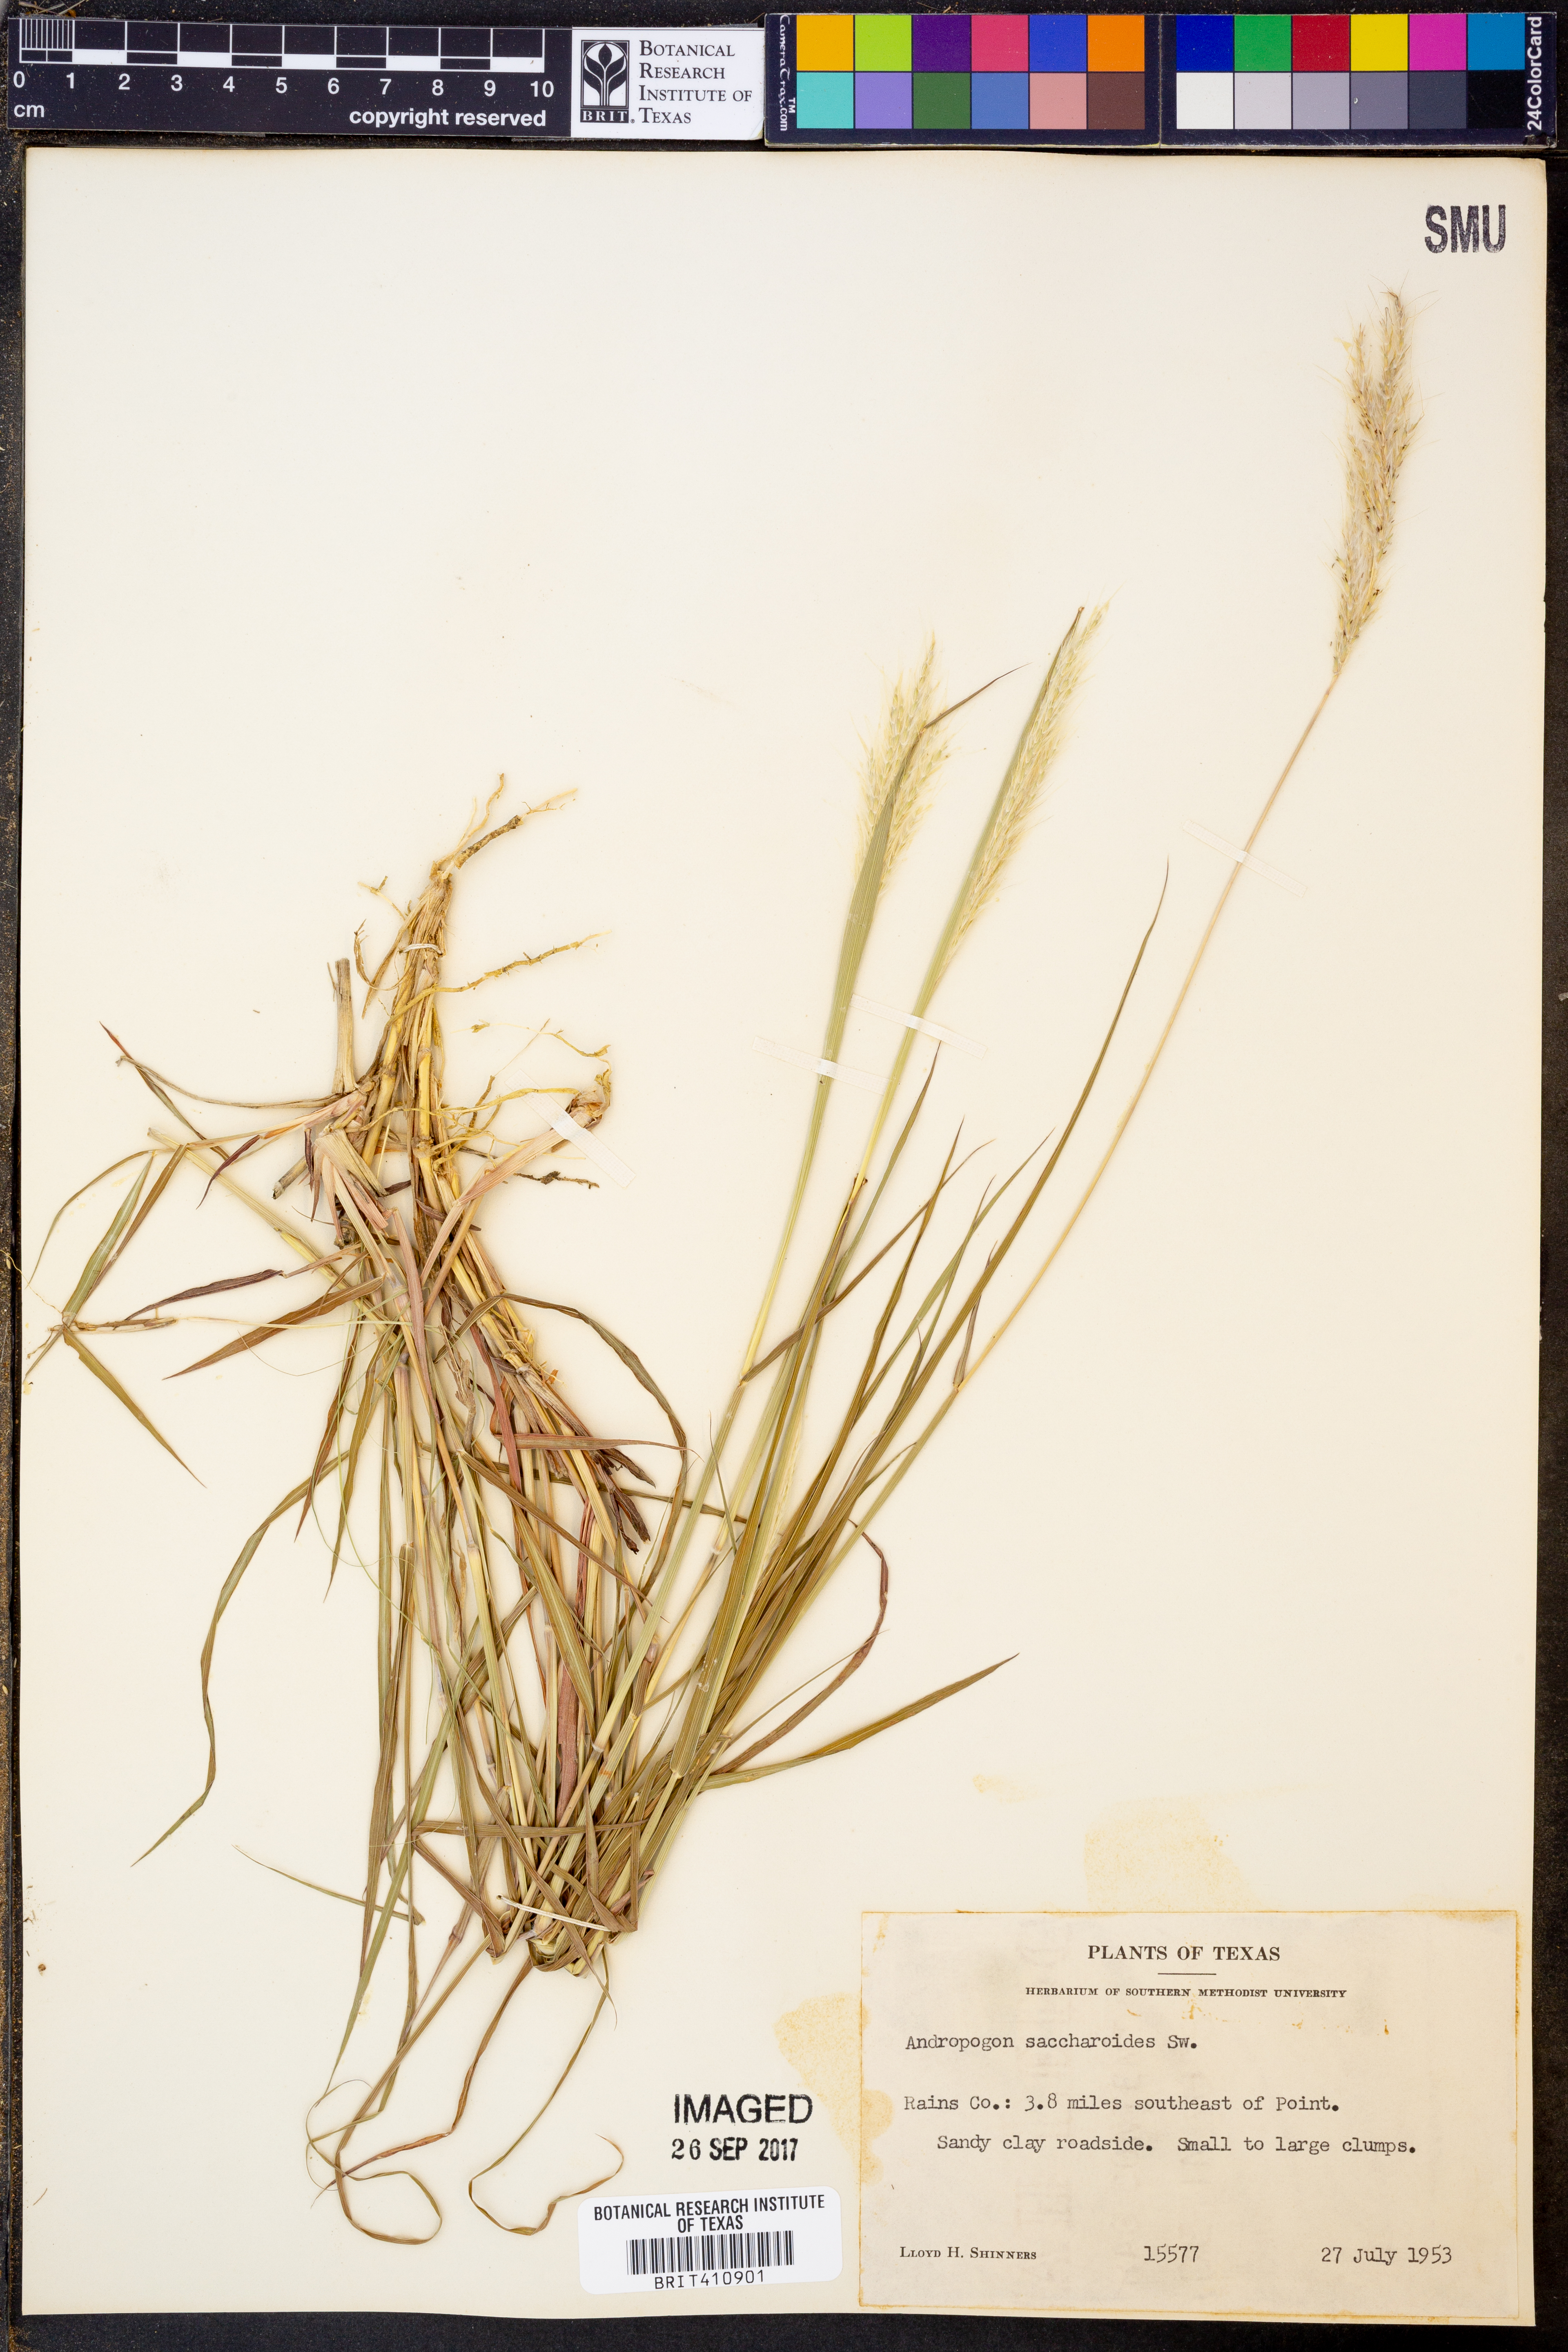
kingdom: Plantae
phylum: Tracheophyta
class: Liliopsida
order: Poales
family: Poaceae
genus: Bothriochloa
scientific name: Bothriochloa saccharoides
